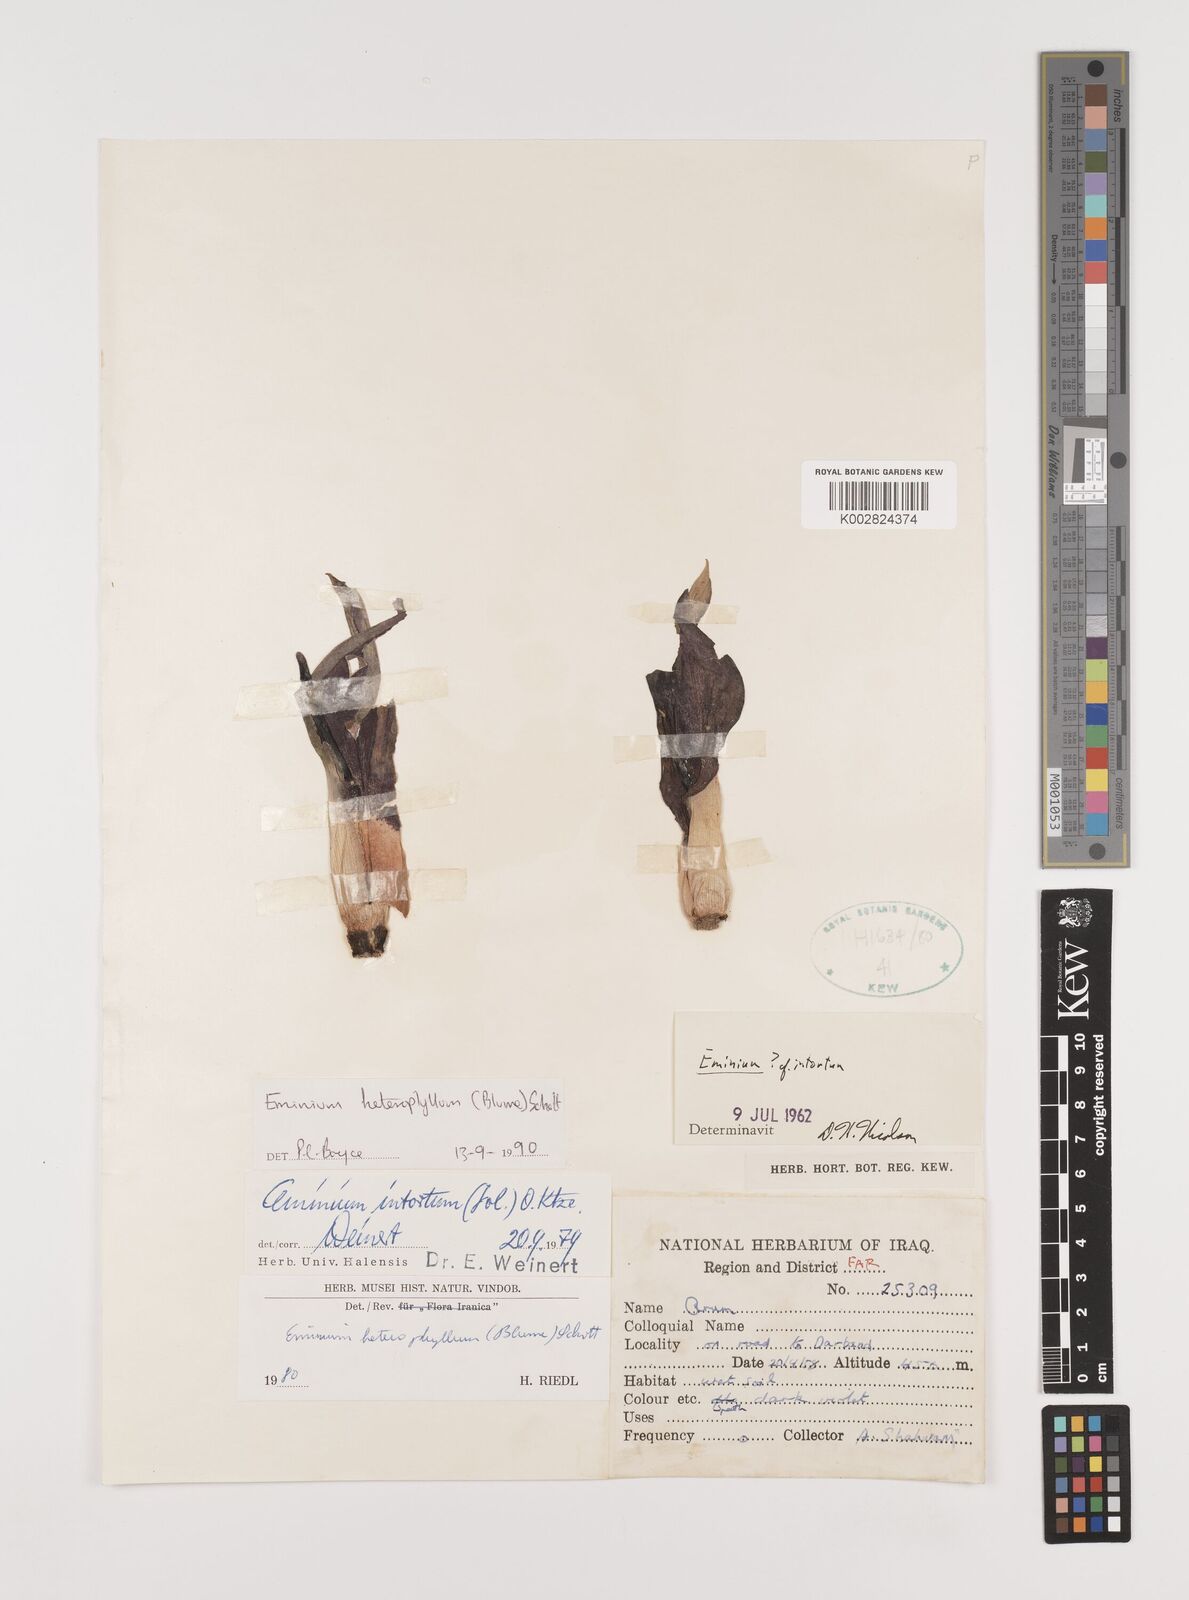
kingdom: Plantae
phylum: Tracheophyta
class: Liliopsida
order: Alismatales
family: Araceae
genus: Eminium
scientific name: Eminium rauwolffii
